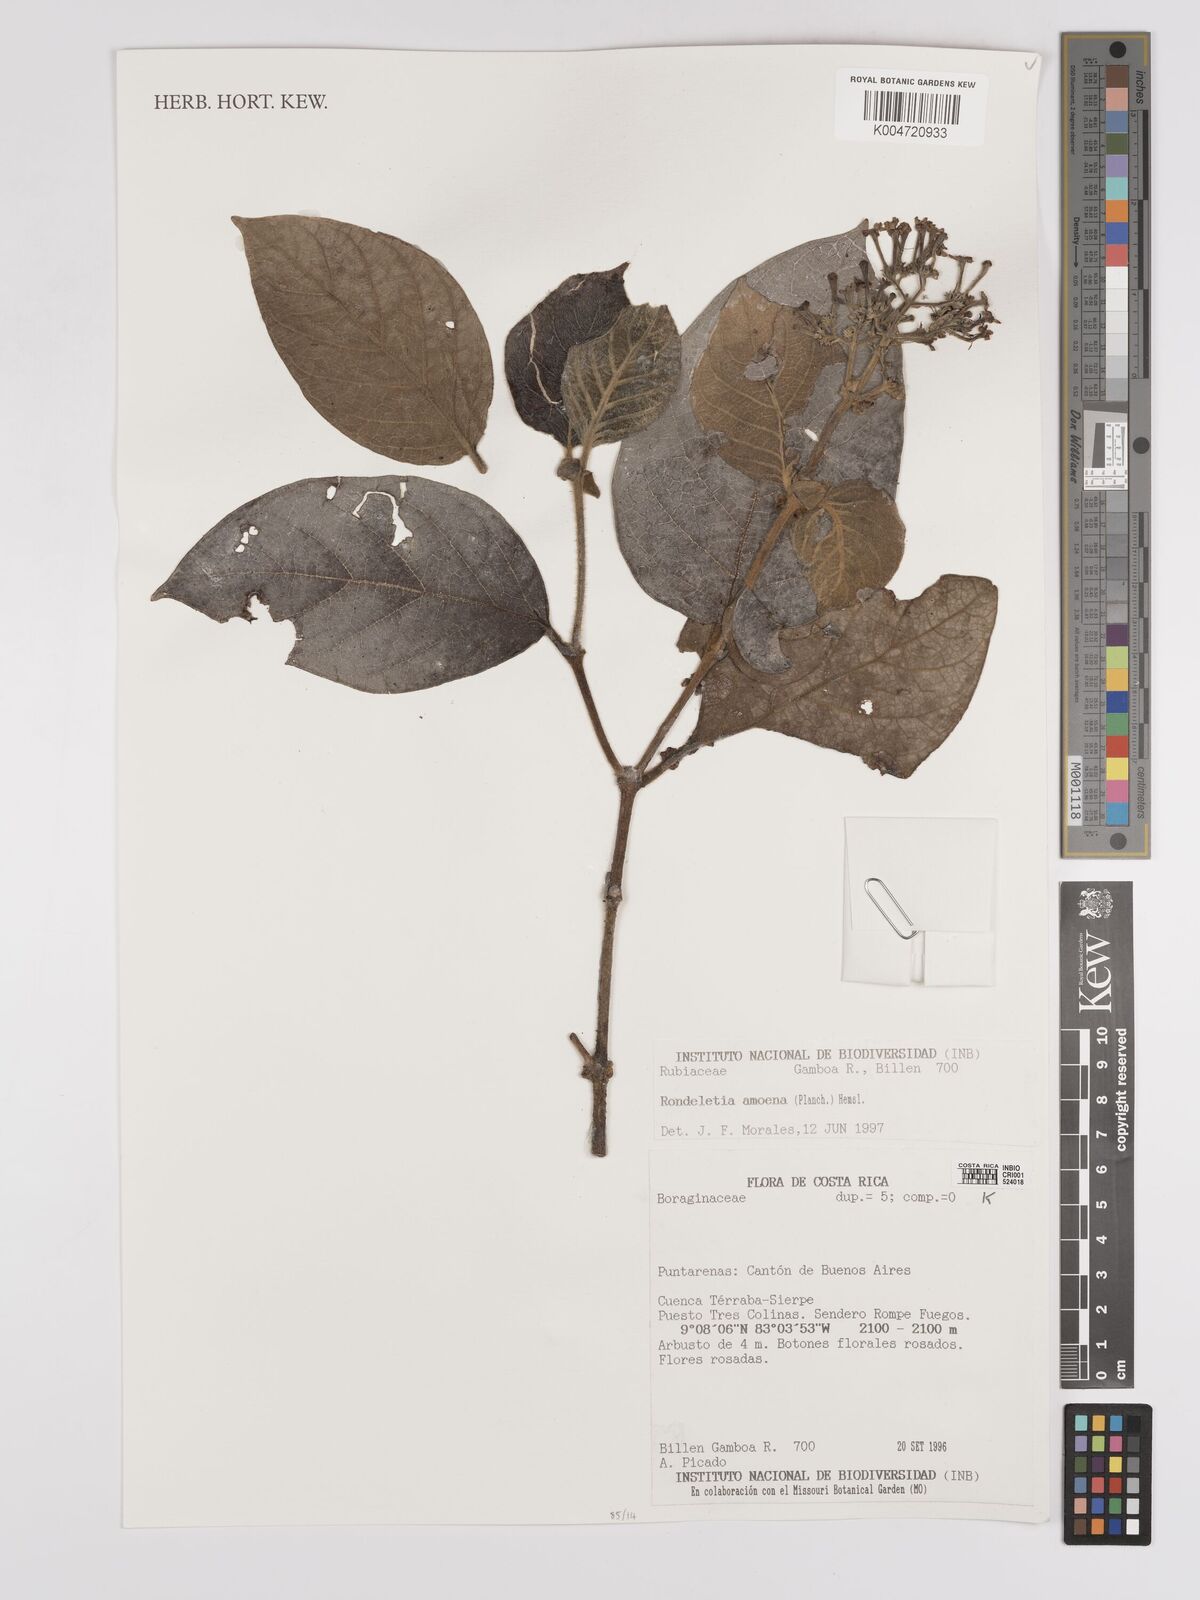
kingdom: Plantae
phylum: Tracheophyta
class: Magnoliopsida
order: Gentianales
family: Rubiaceae
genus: Rogiera
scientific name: Rogiera amoena
